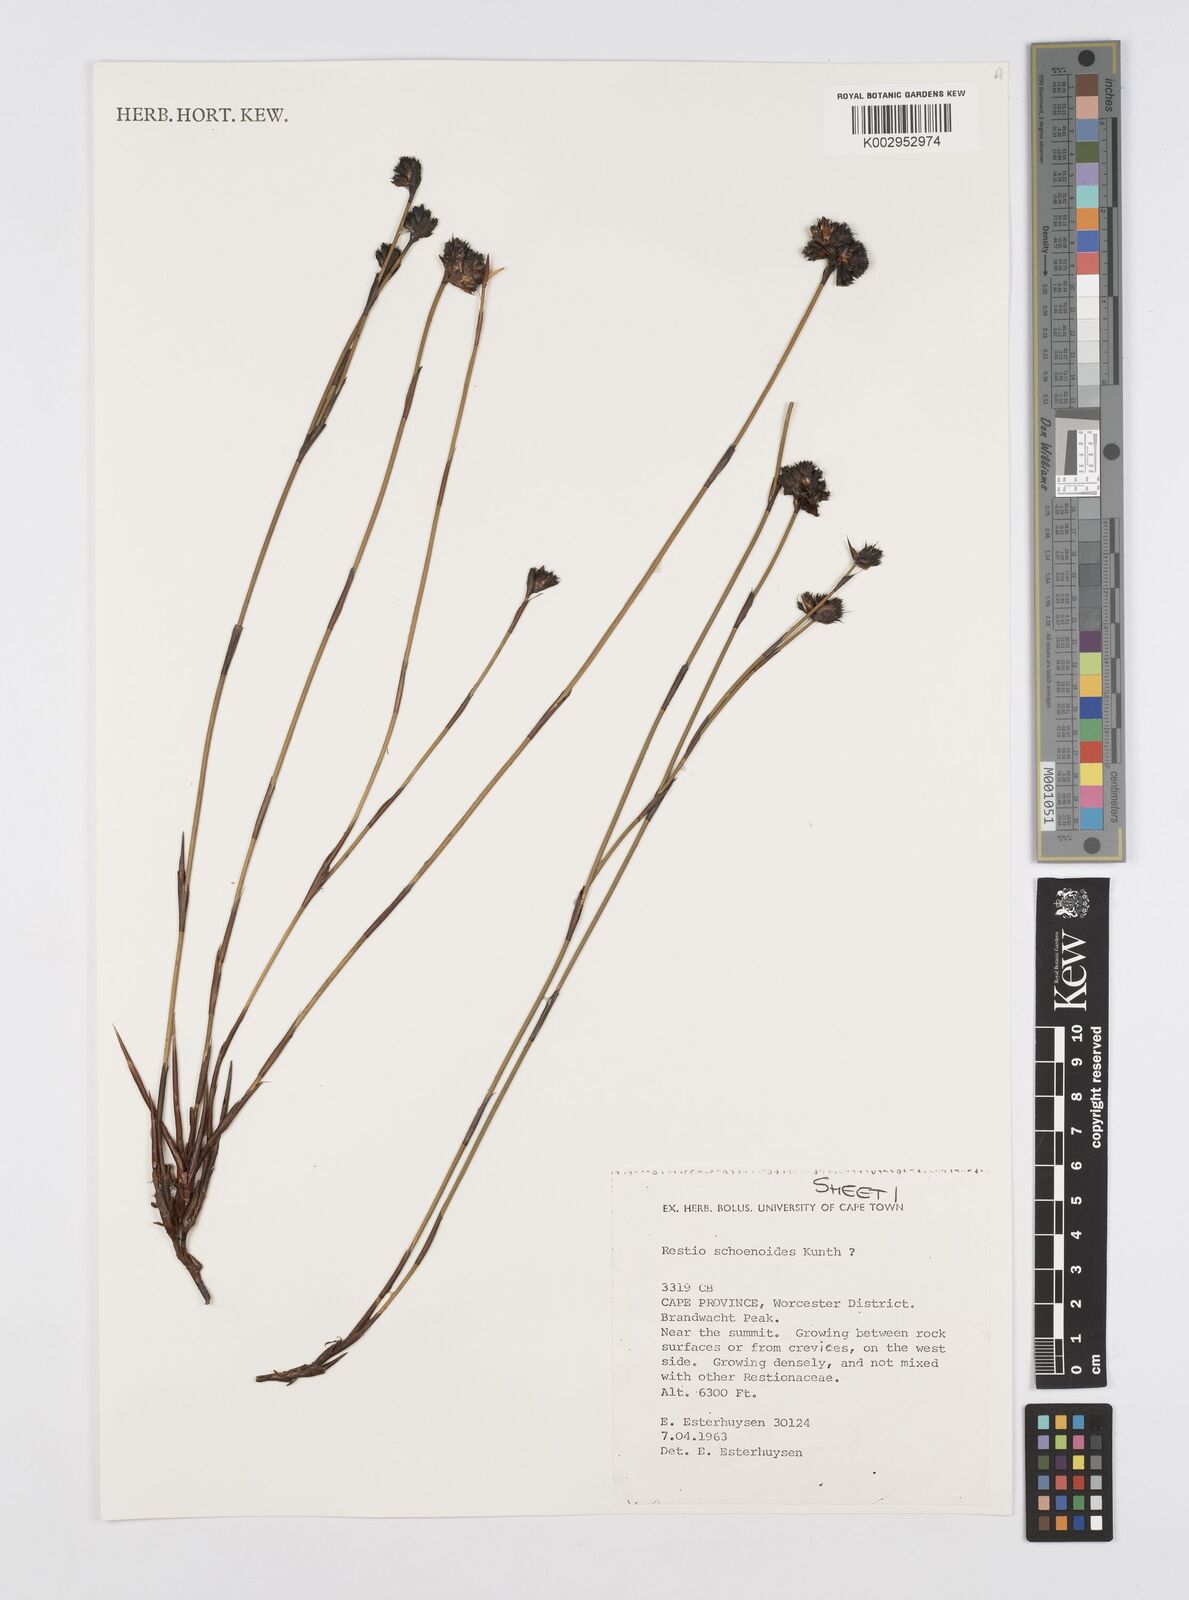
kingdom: Plantae
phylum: Tracheophyta
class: Liliopsida
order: Poales
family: Restionaceae
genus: Restio
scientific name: Restio schoenoides
